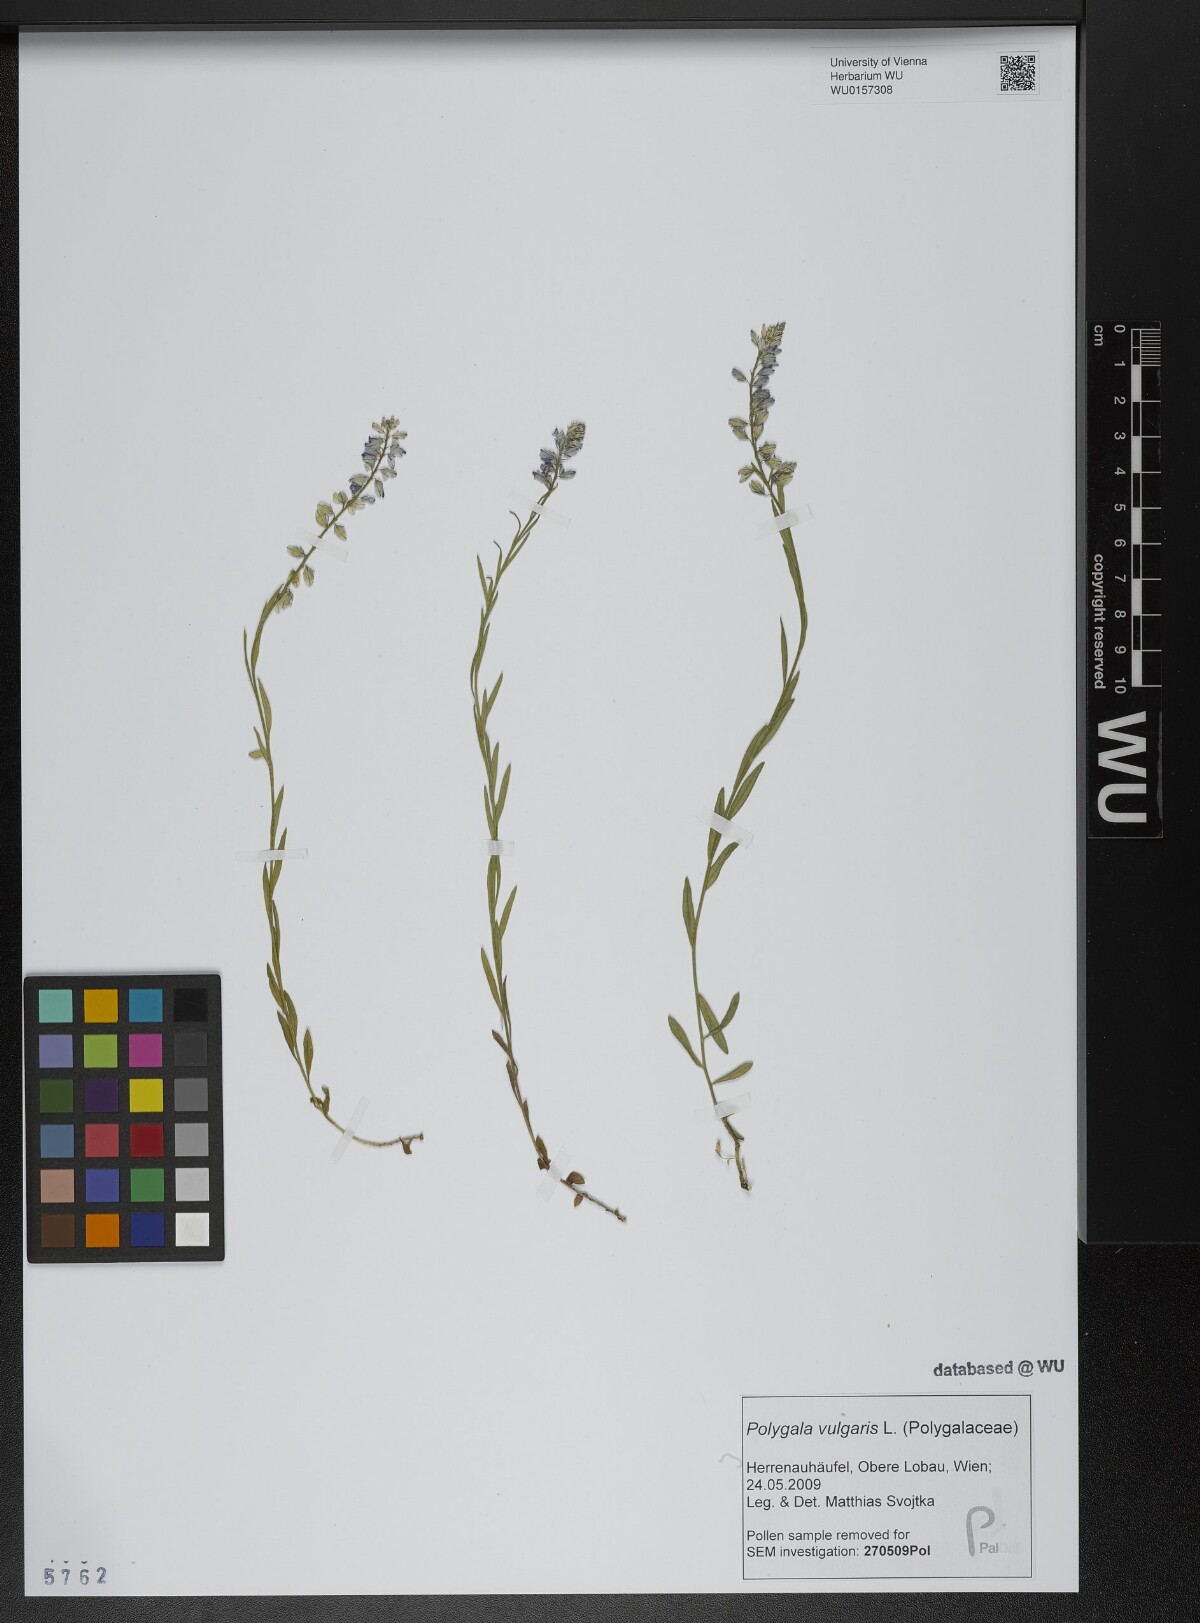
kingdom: Plantae
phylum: Tracheophyta
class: Magnoliopsida
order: Fabales
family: Polygalaceae
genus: Polygala
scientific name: Polygala vulgaris
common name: Common milkwort
